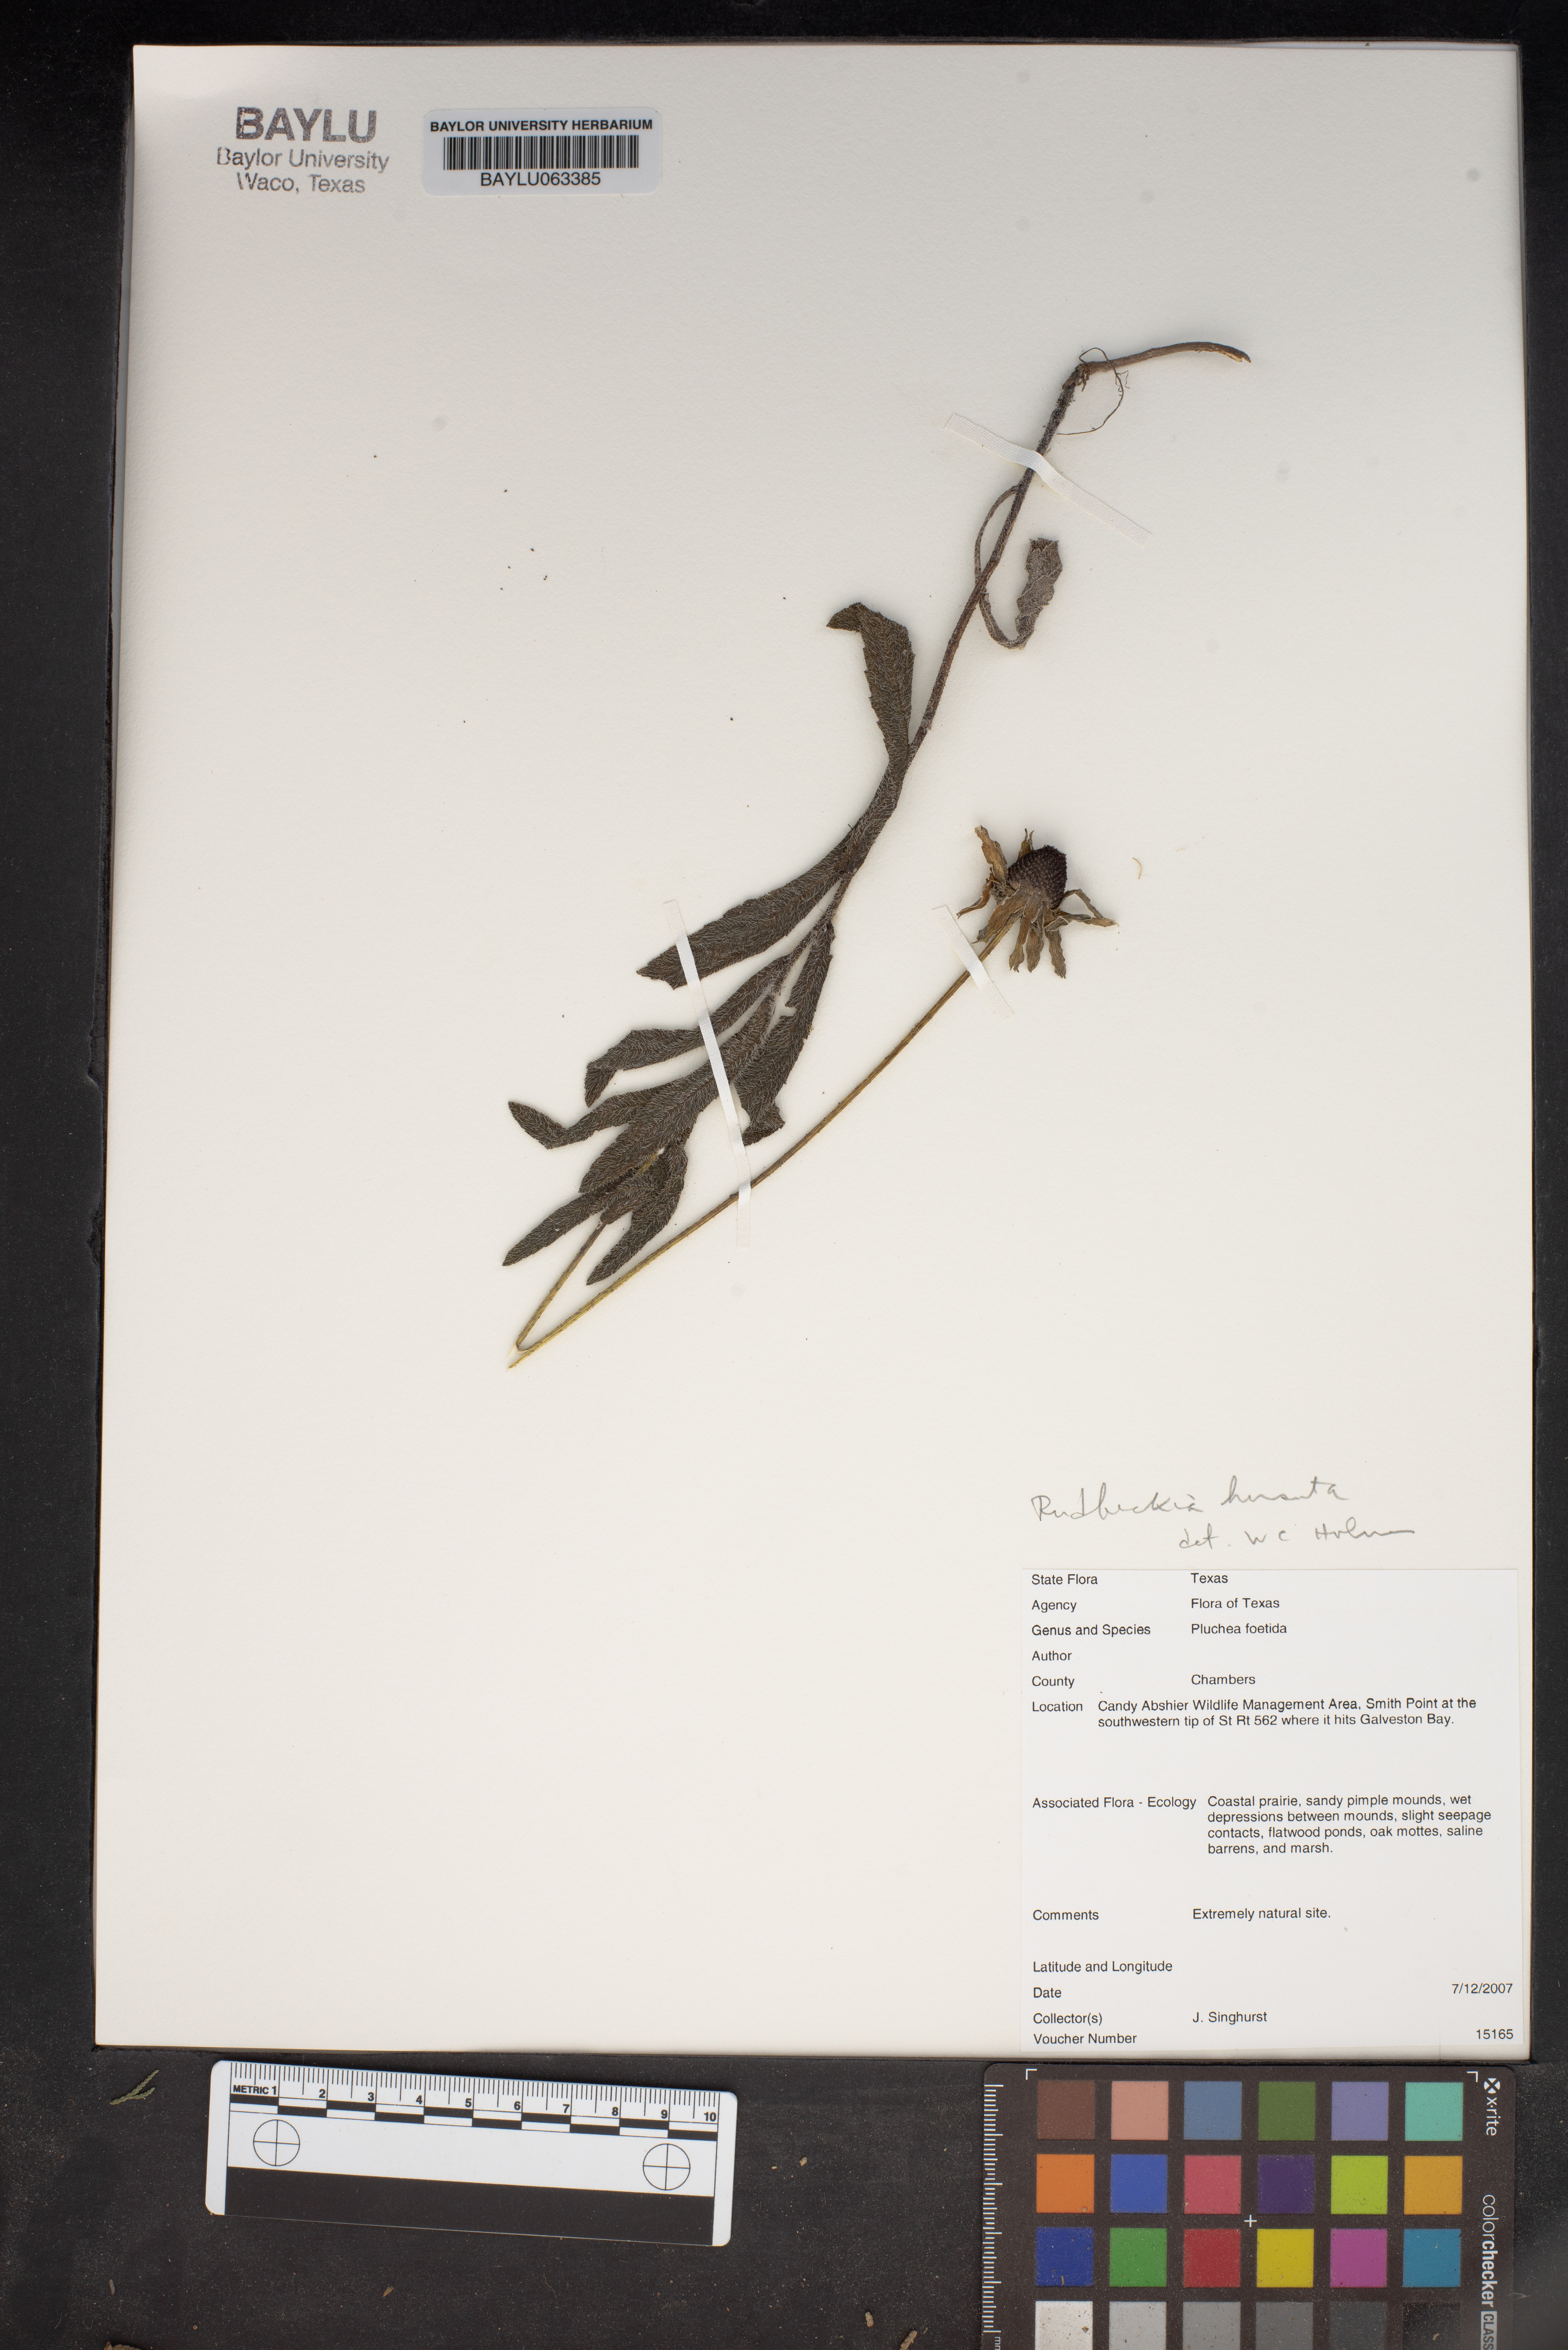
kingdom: Plantae
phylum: Tracheophyta
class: Magnoliopsida
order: Asterales
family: Asteraceae
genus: Rudbeckia
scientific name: Rudbeckia hirta
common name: Black-eyed-susan
